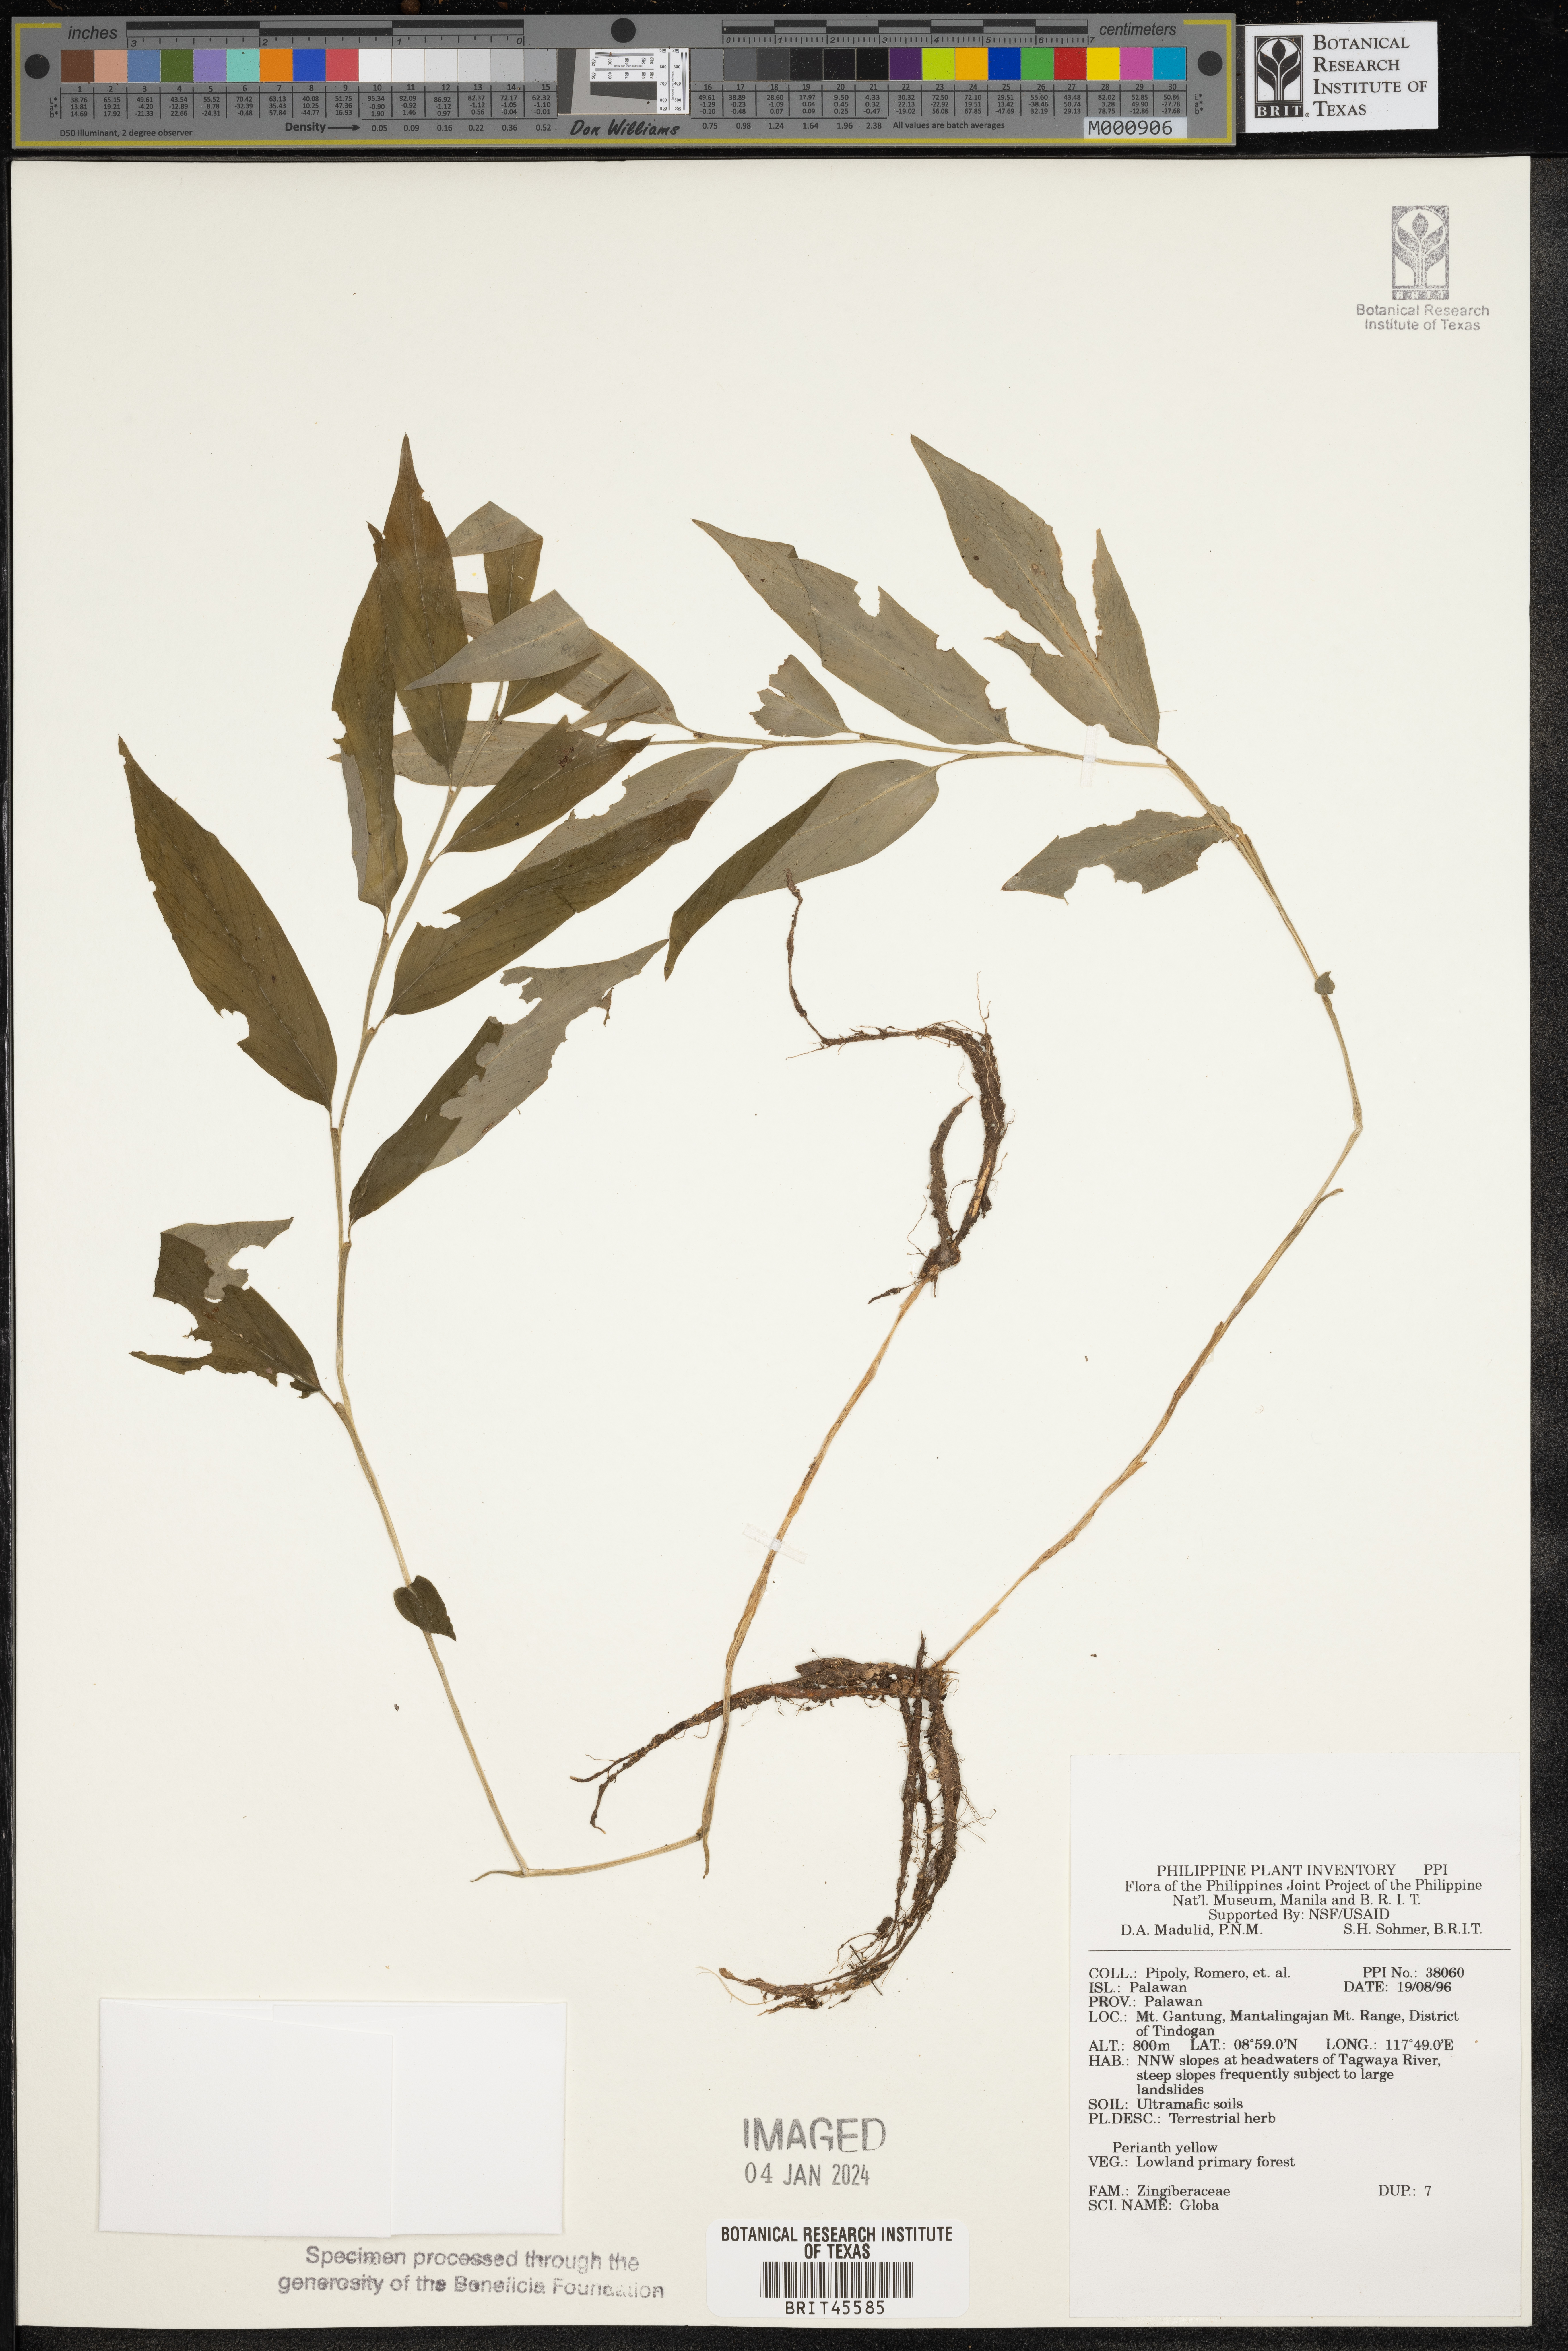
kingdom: Plantae
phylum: Tracheophyta
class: Liliopsida
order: Zingiberales
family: Zingiberaceae
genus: Globba
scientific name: Globba
